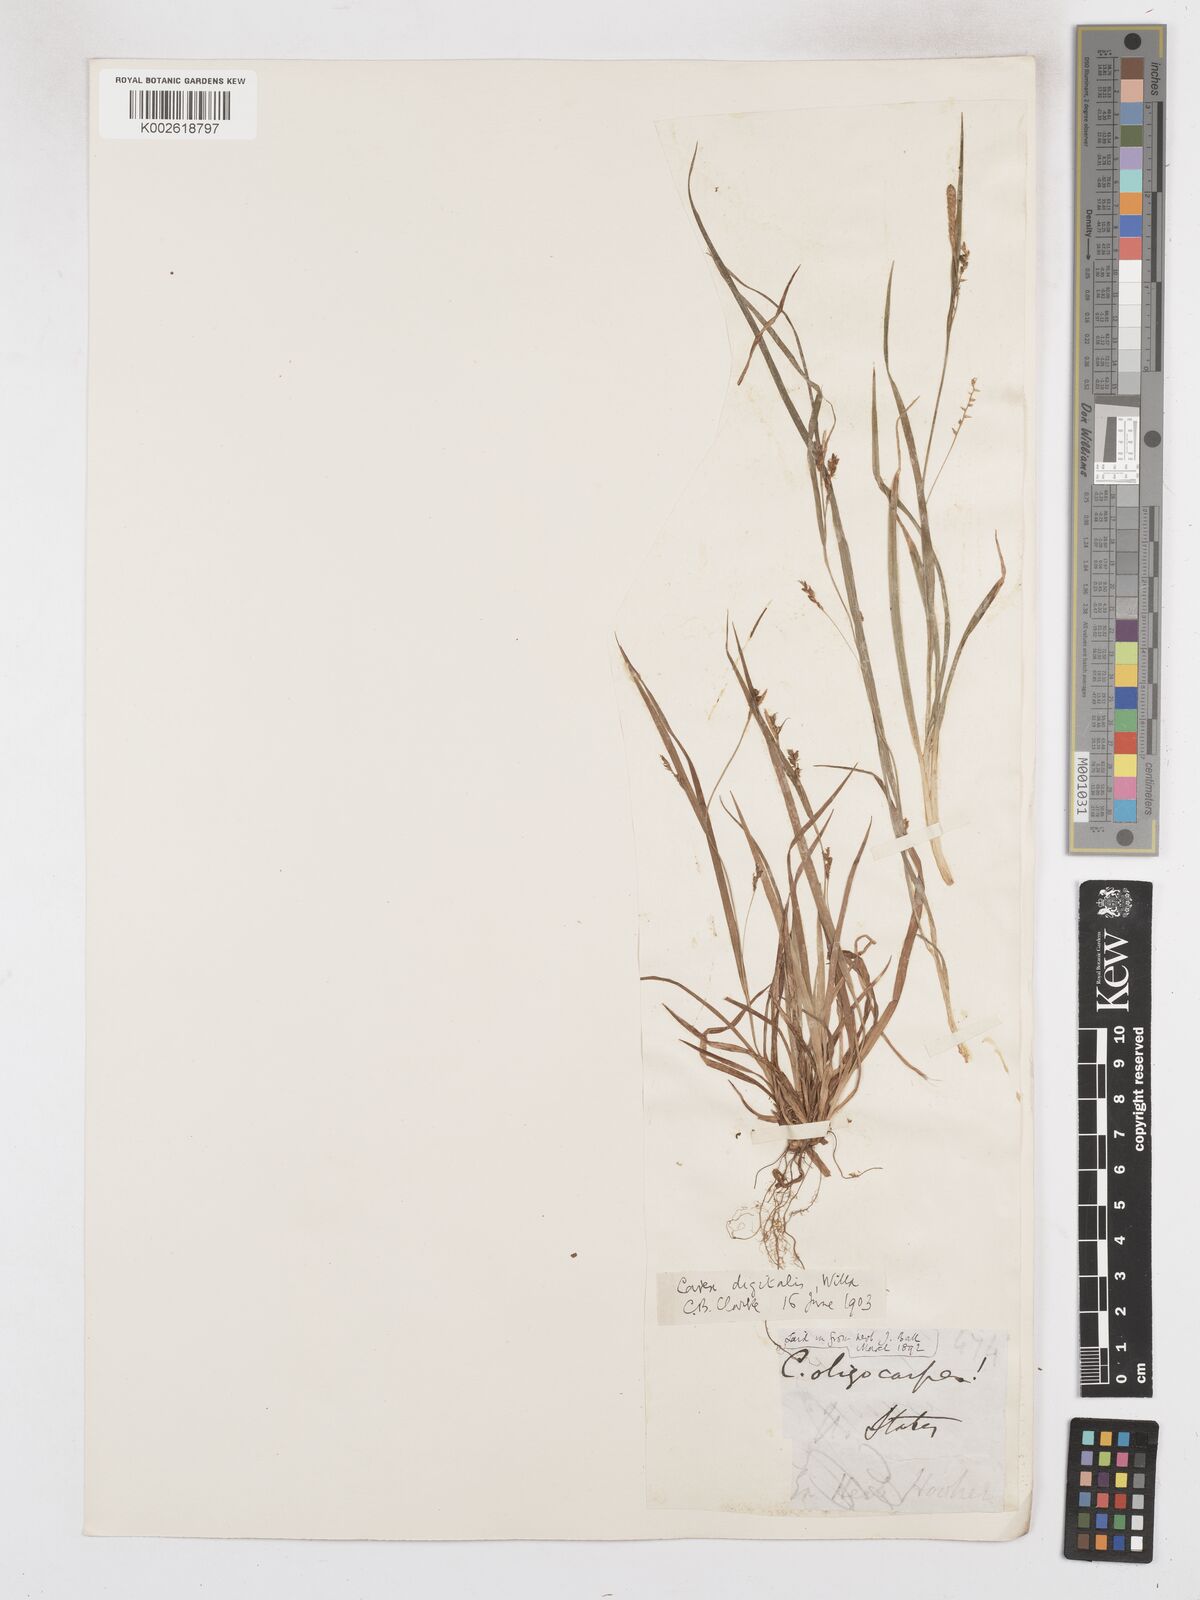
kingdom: Plantae
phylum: Tracheophyta
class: Liliopsida
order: Poales
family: Cyperaceae
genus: Carex
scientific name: Carex digitalis
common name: Slender wood sedge
